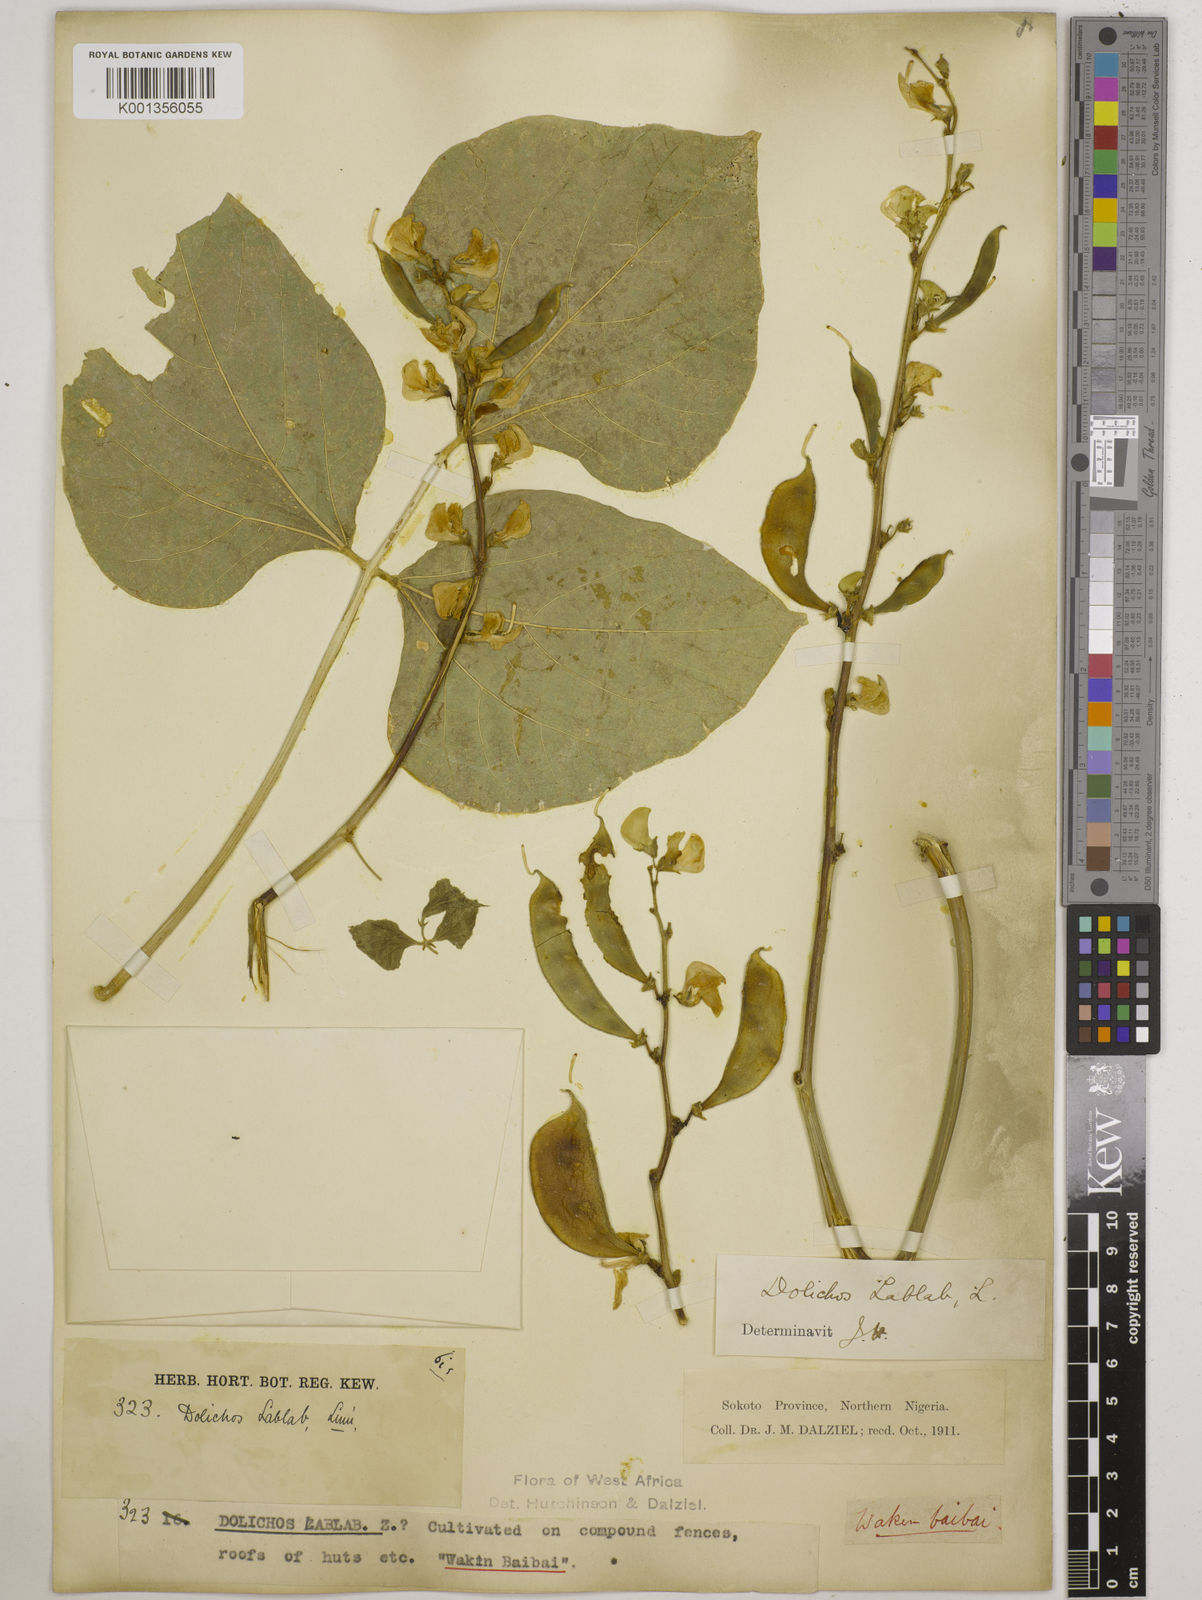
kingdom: Plantae
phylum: Tracheophyta
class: Magnoliopsida
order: Fabales
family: Fabaceae
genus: Lablab
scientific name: Lablab purpureus
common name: Lablab-bean
